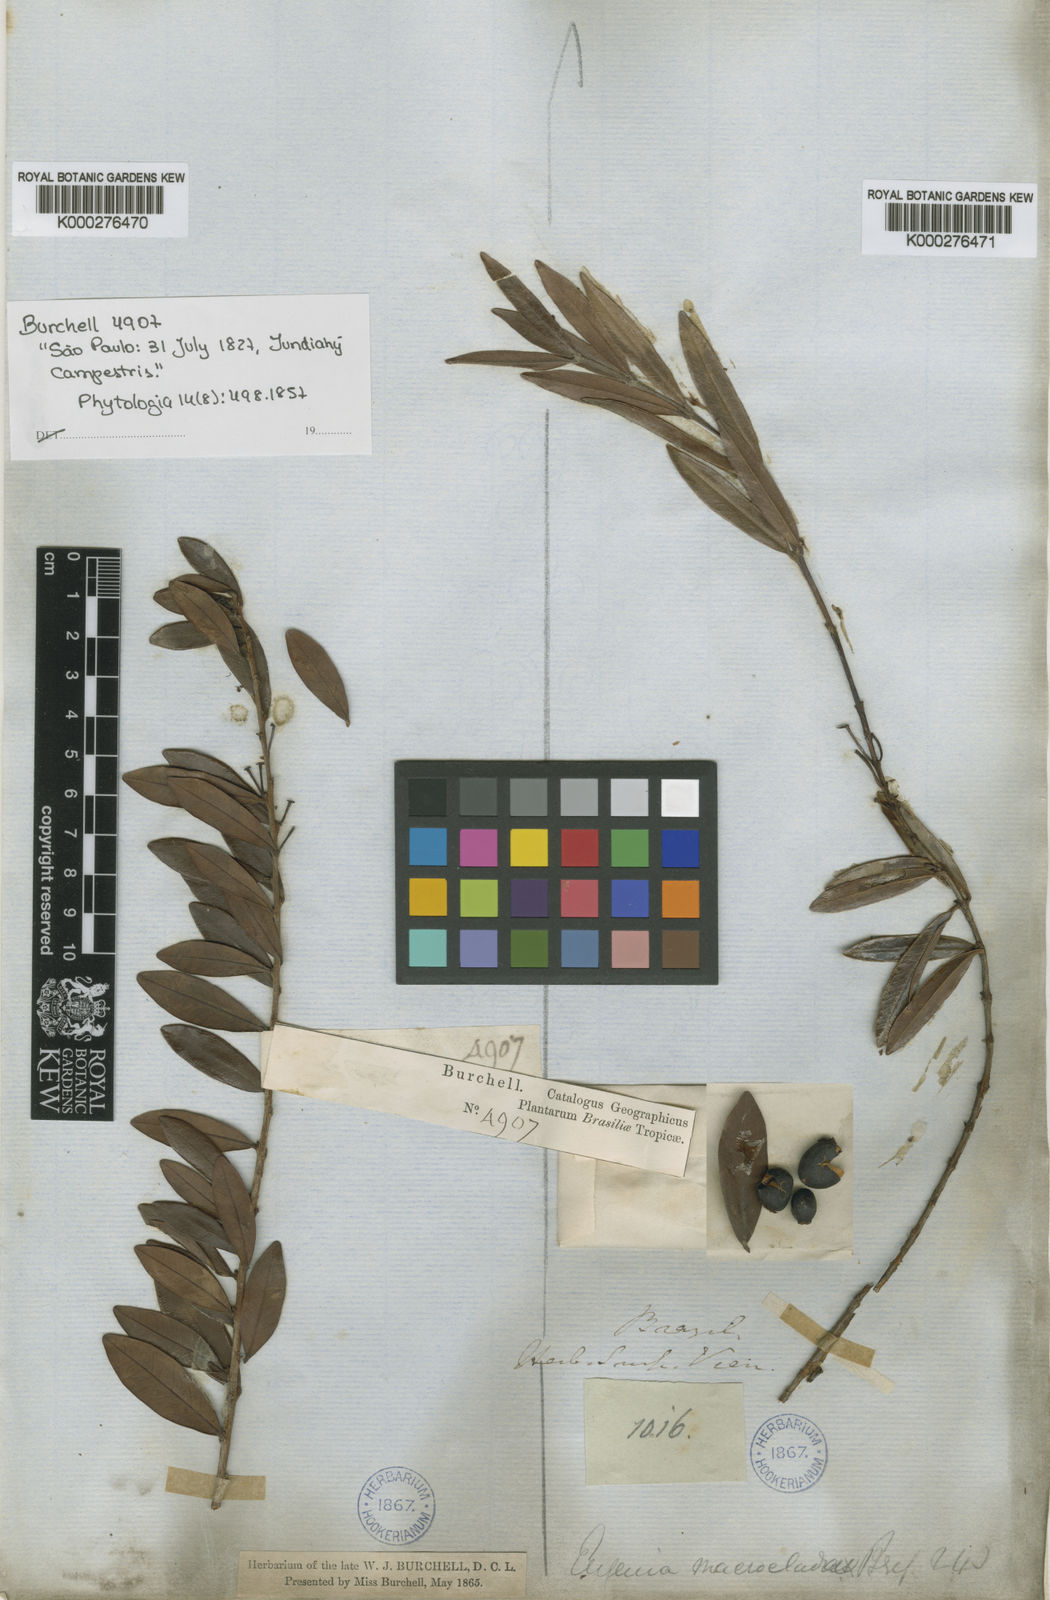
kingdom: Plantae
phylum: Tracheophyta
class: Magnoliopsida
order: Myrtales
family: Myrtaceae
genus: Eugenia
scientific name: Eugenia punicifolia
